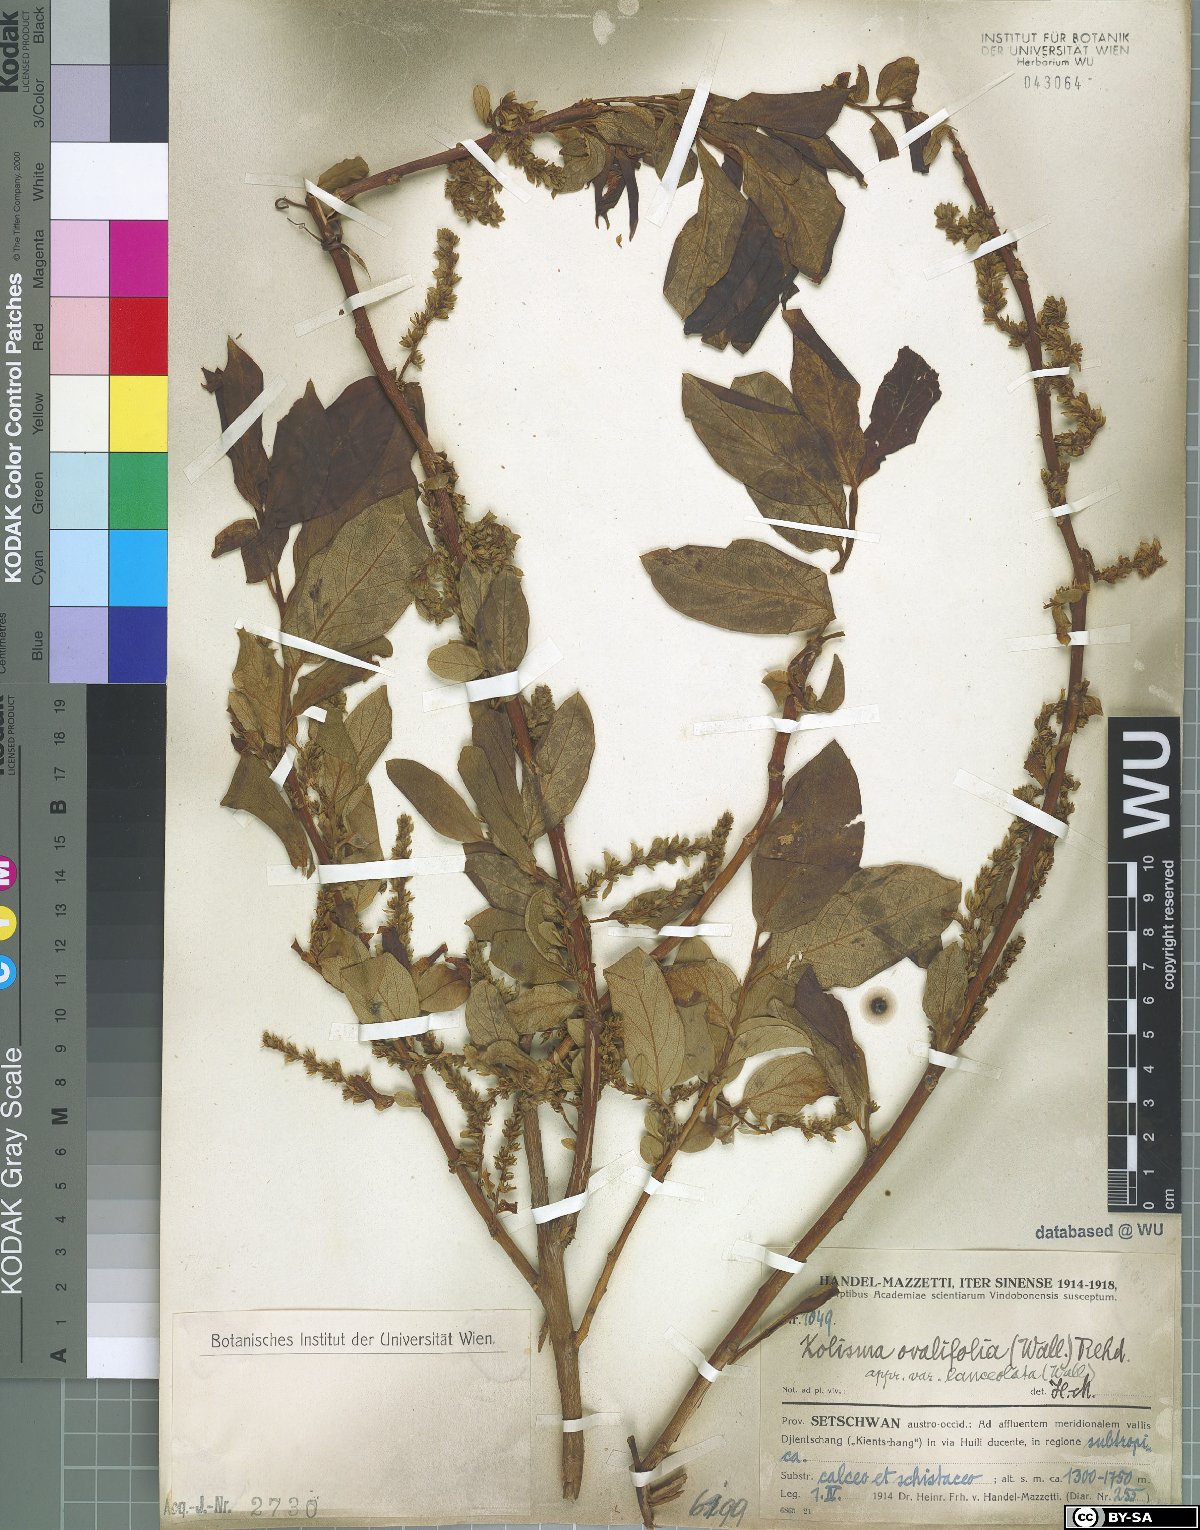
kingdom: Plantae
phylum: Tracheophyta
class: Magnoliopsida
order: Ericales
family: Ericaceae
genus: Lyonia
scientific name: Lyonia ovalifolia
